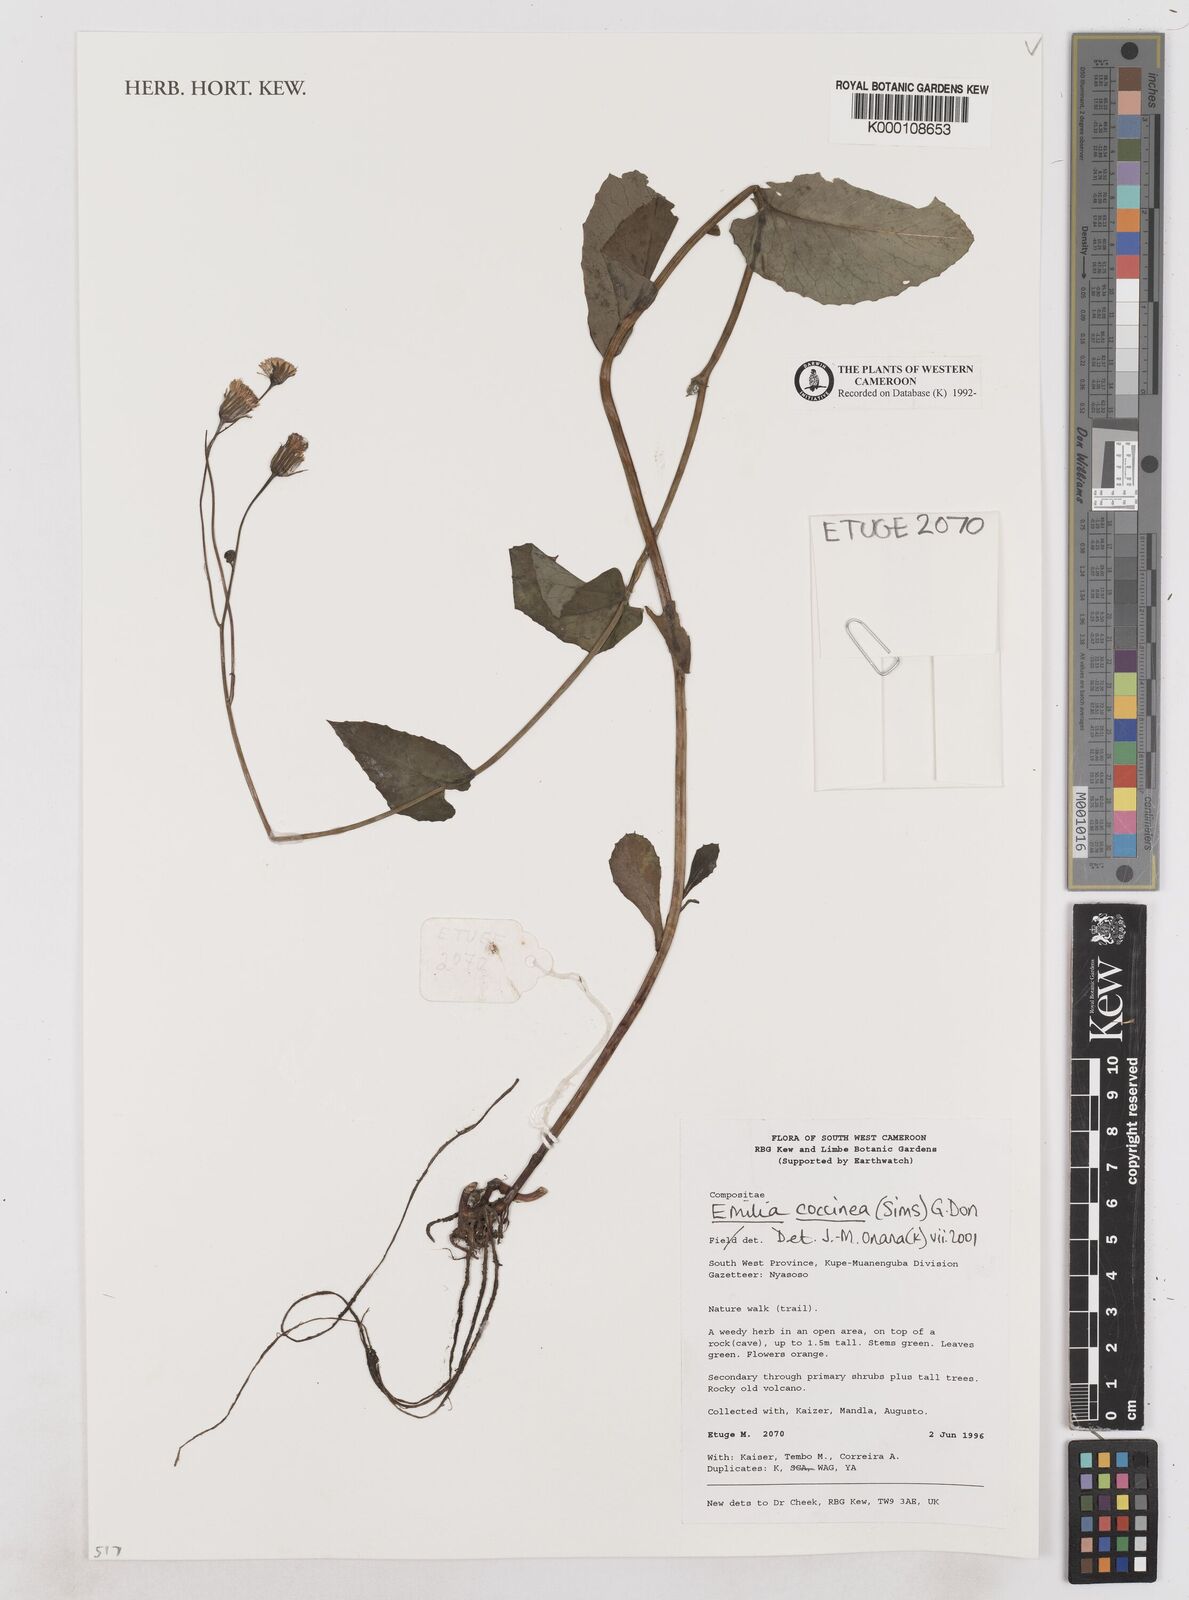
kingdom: Plantae
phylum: Tracheophyta
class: Magnoliopsida
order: Asterales
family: Asteraceae
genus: Emilia
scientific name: Emilia coccinea
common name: Scarlet tasselflower
